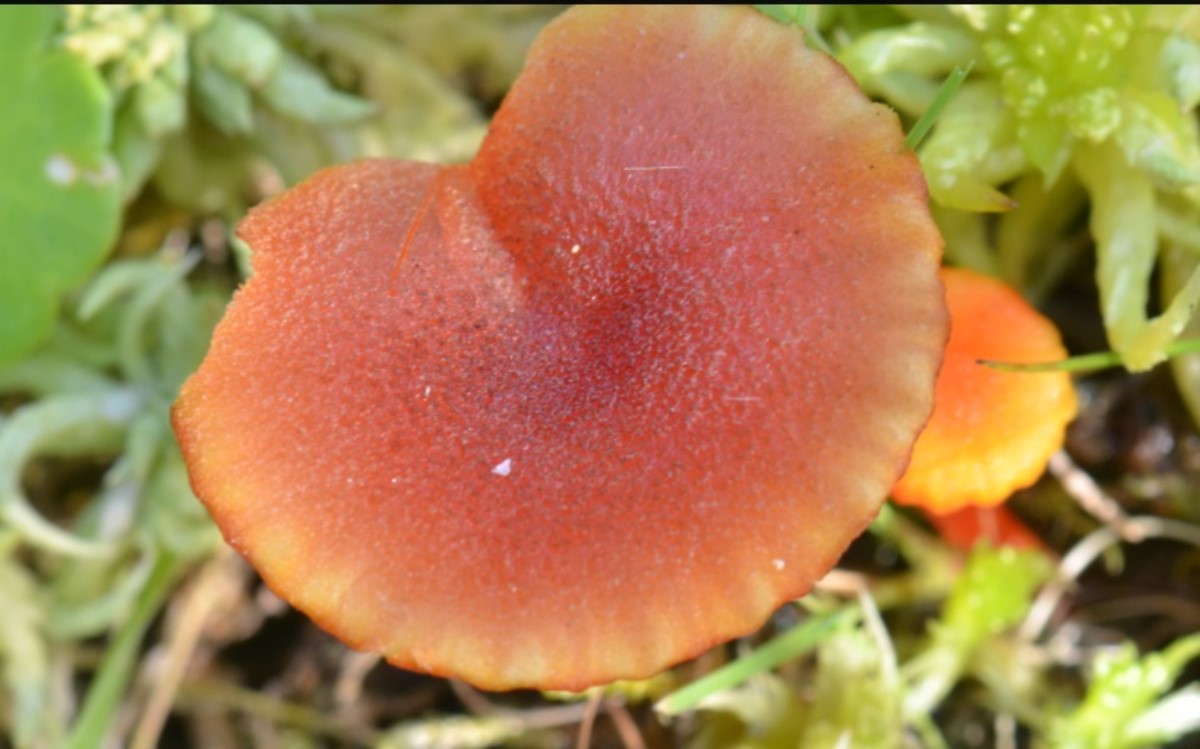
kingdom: Fungi
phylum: Basidiomycota
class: Agaricomycetes
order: Agaricales
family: Hygrophoraceae
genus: Hygrocybe
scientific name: Hygrocybe coccineocrenata
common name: tørvemos-vokshat
